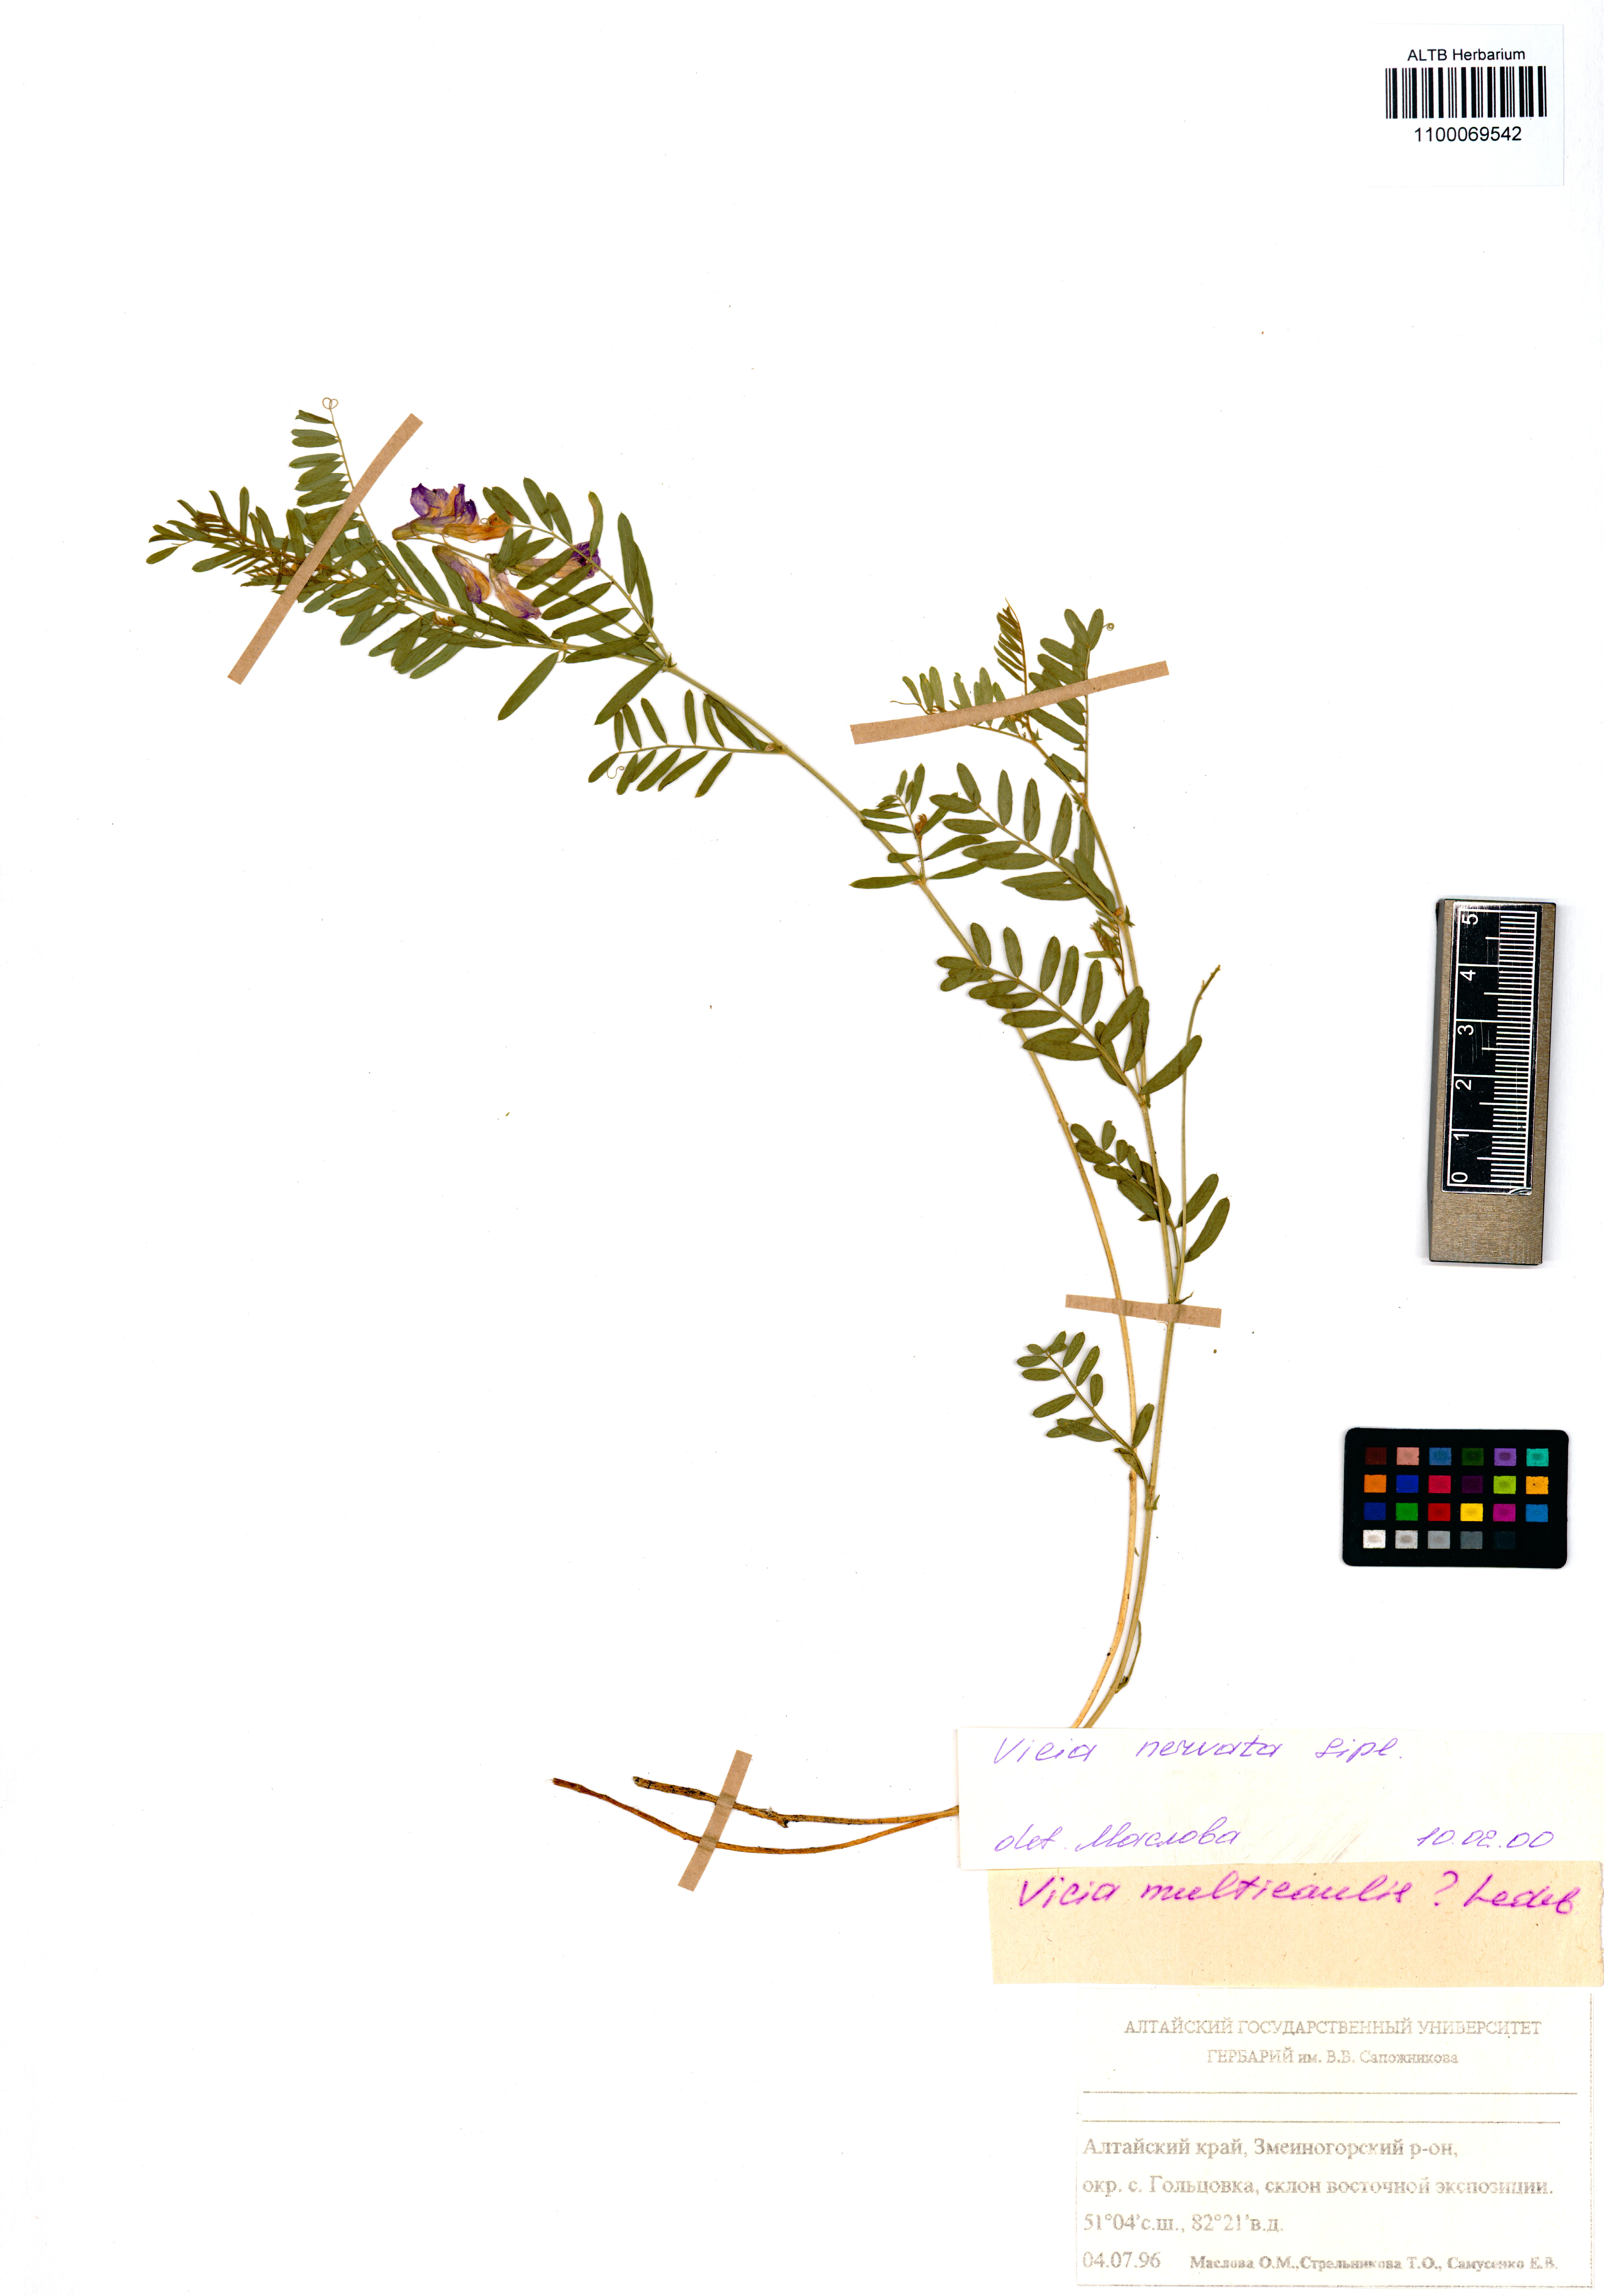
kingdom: Plantae
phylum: Tracheophyta
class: Magnoliopsida
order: Fabales
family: Fabaceae
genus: Vicia
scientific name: Vicia multicaulis
